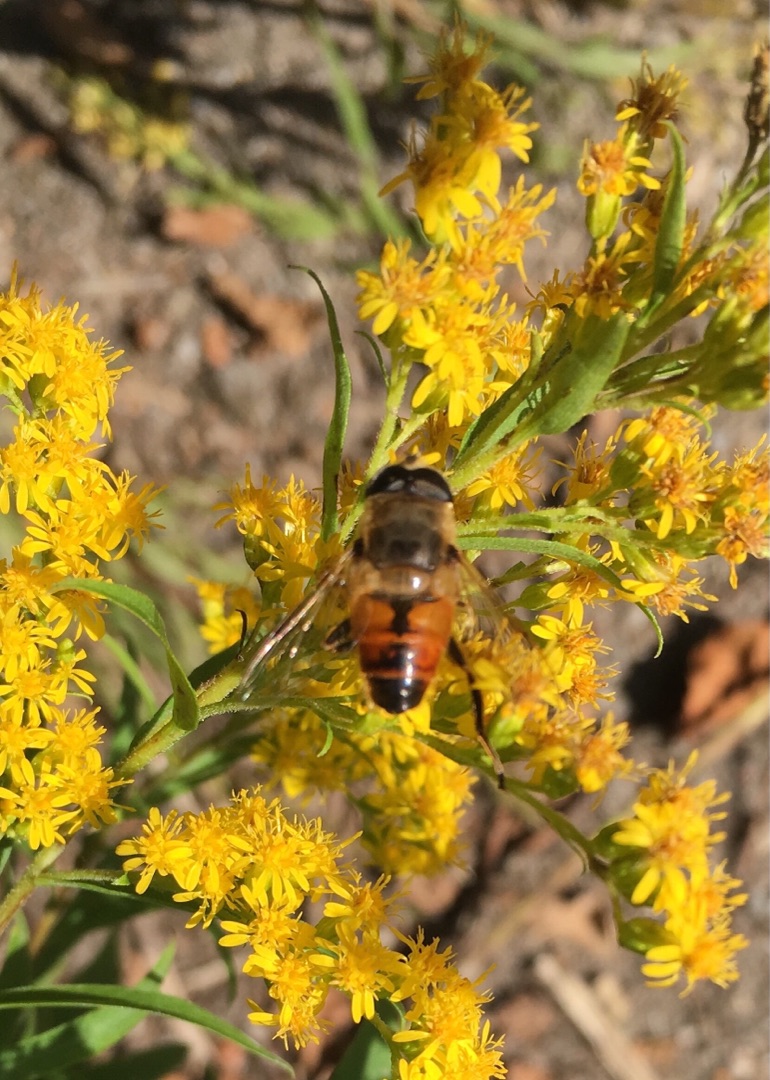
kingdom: Animalia
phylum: Arthropoda
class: Insecta
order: Diptera
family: Syrphidae
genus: Eristalis
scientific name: Eristalis tenax
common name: Droneflue
